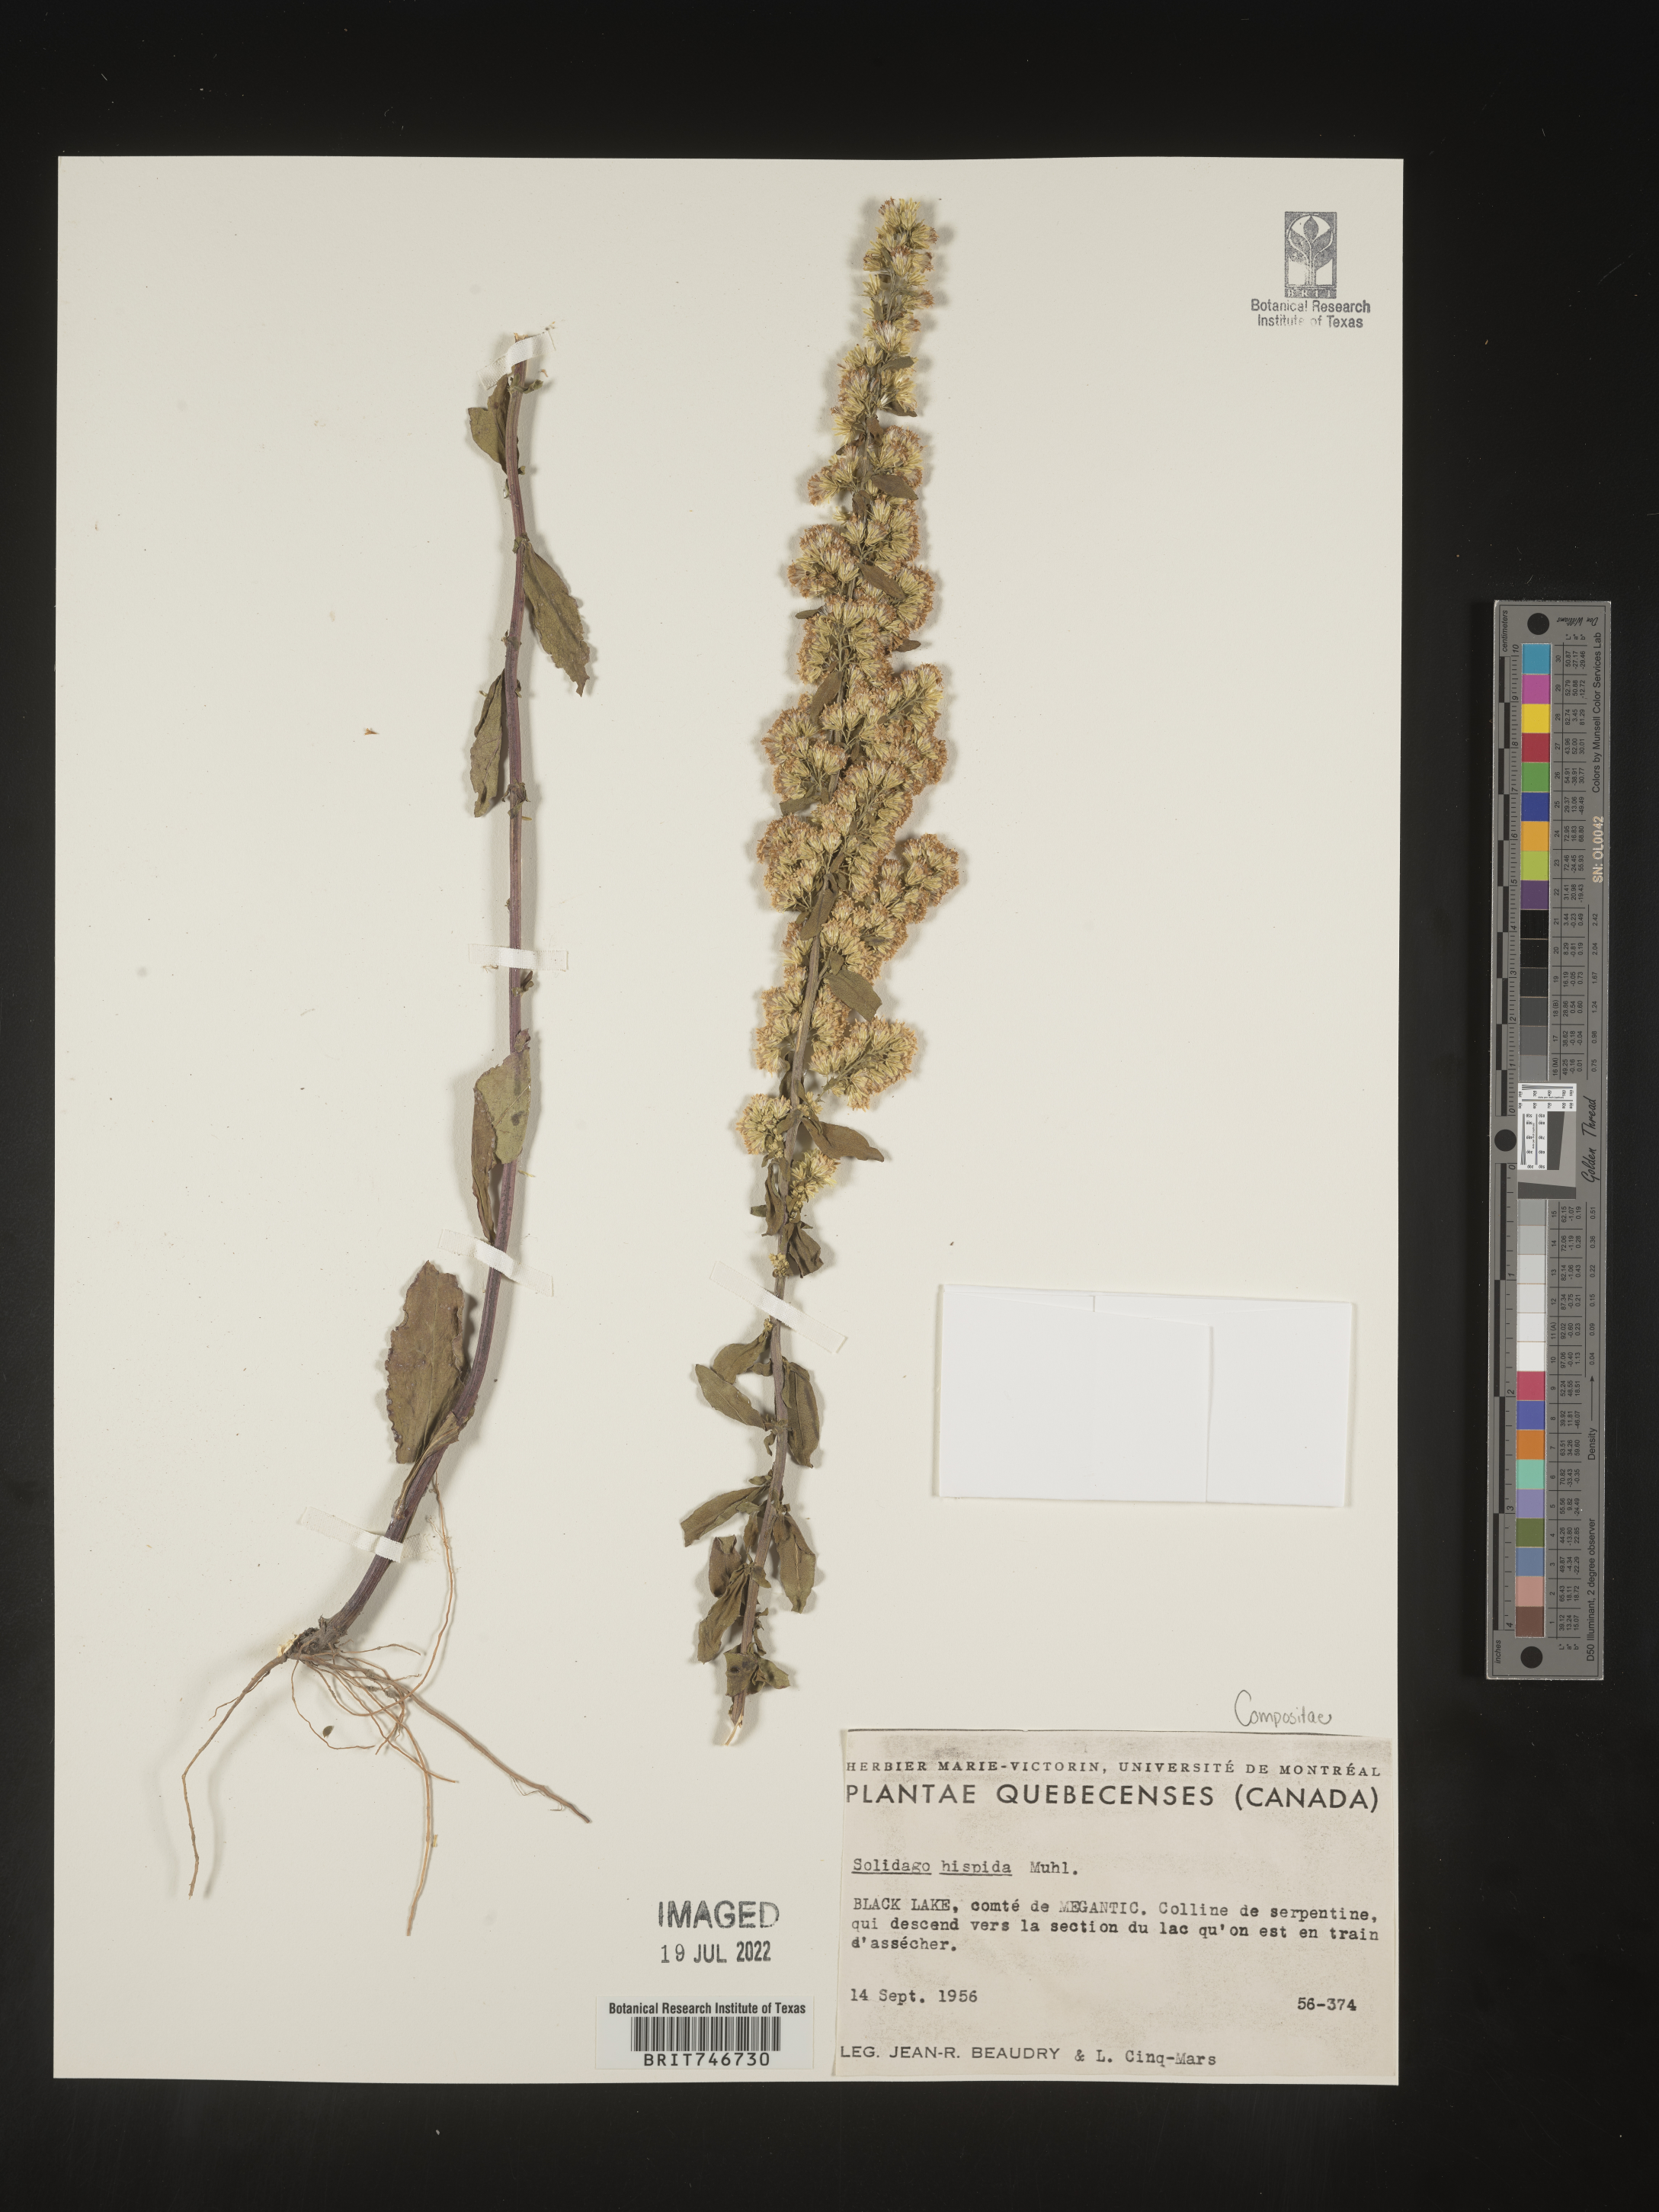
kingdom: Plantae
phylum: Tracheophyta
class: Magnoliopsida
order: Asterales
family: Asteraceae
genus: Solidago
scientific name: Solidago hispida
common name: Hairy goldenrod
